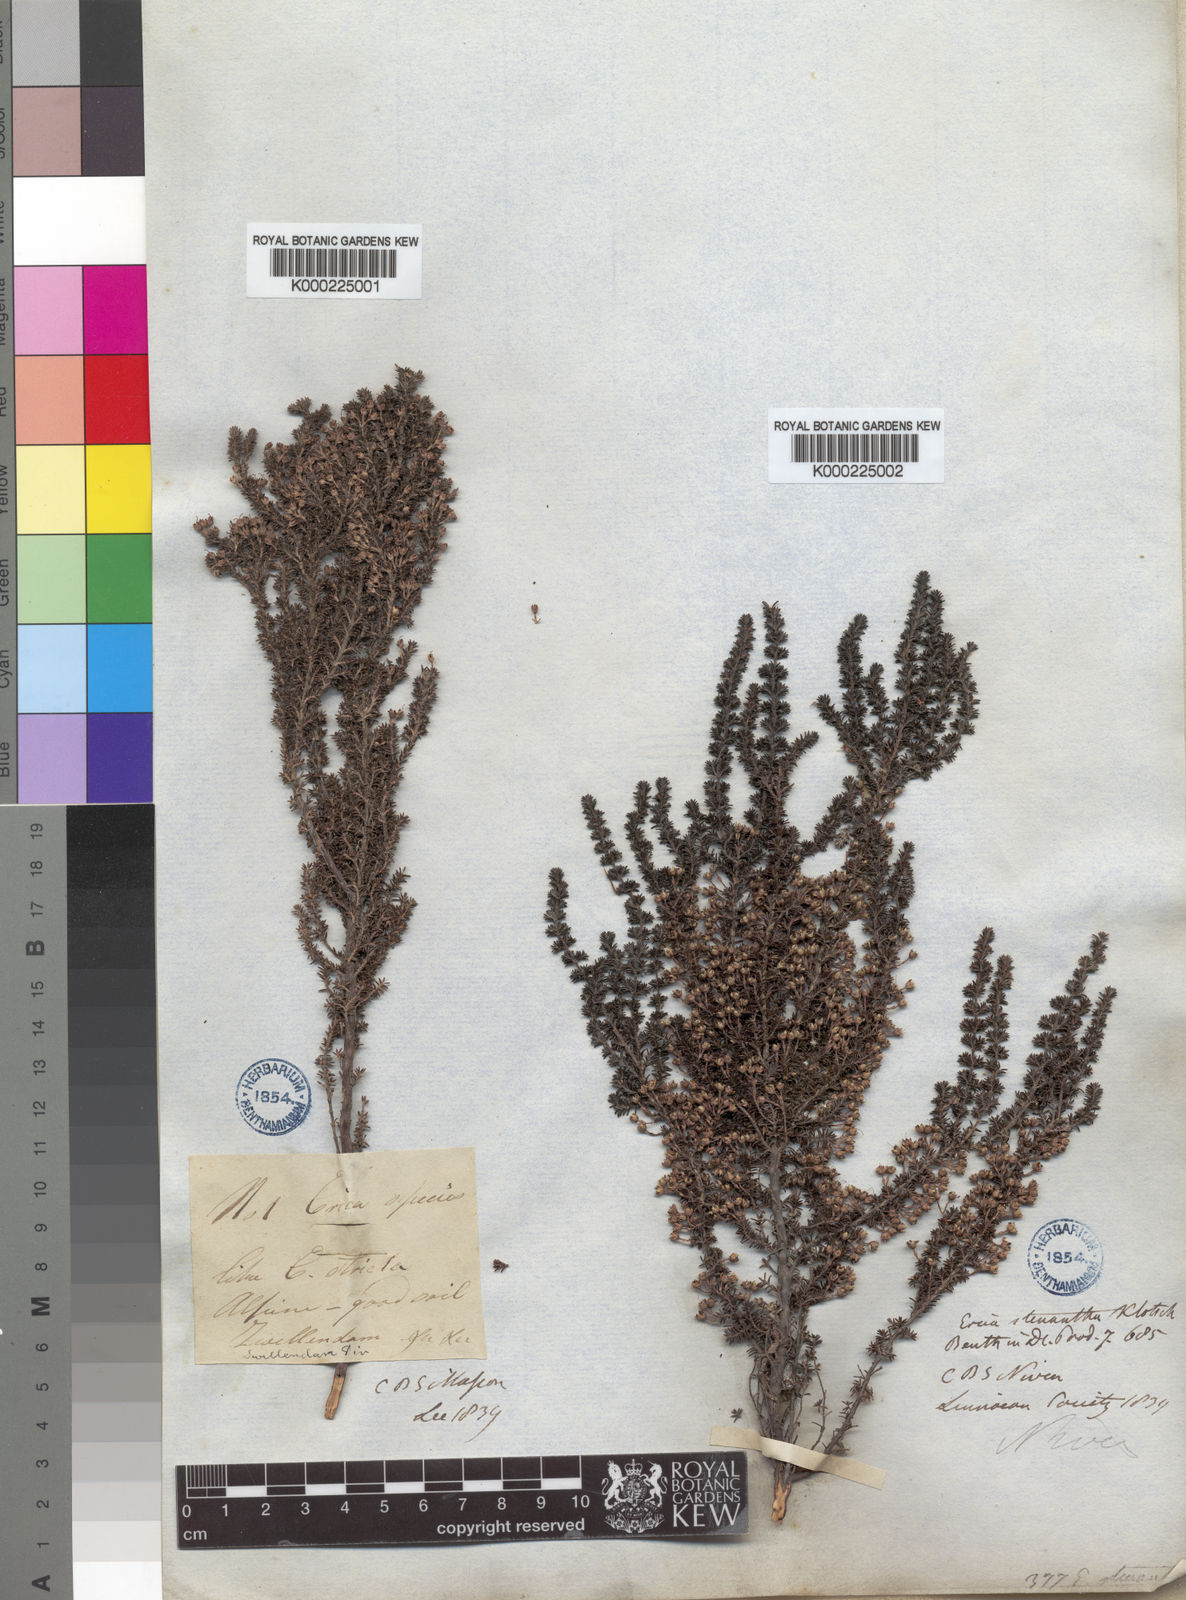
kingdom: Plantae
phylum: Tracheophyta
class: Magnoliopsida
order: Ericales
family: Ericaceae
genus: Erica
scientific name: Erica stenantha
